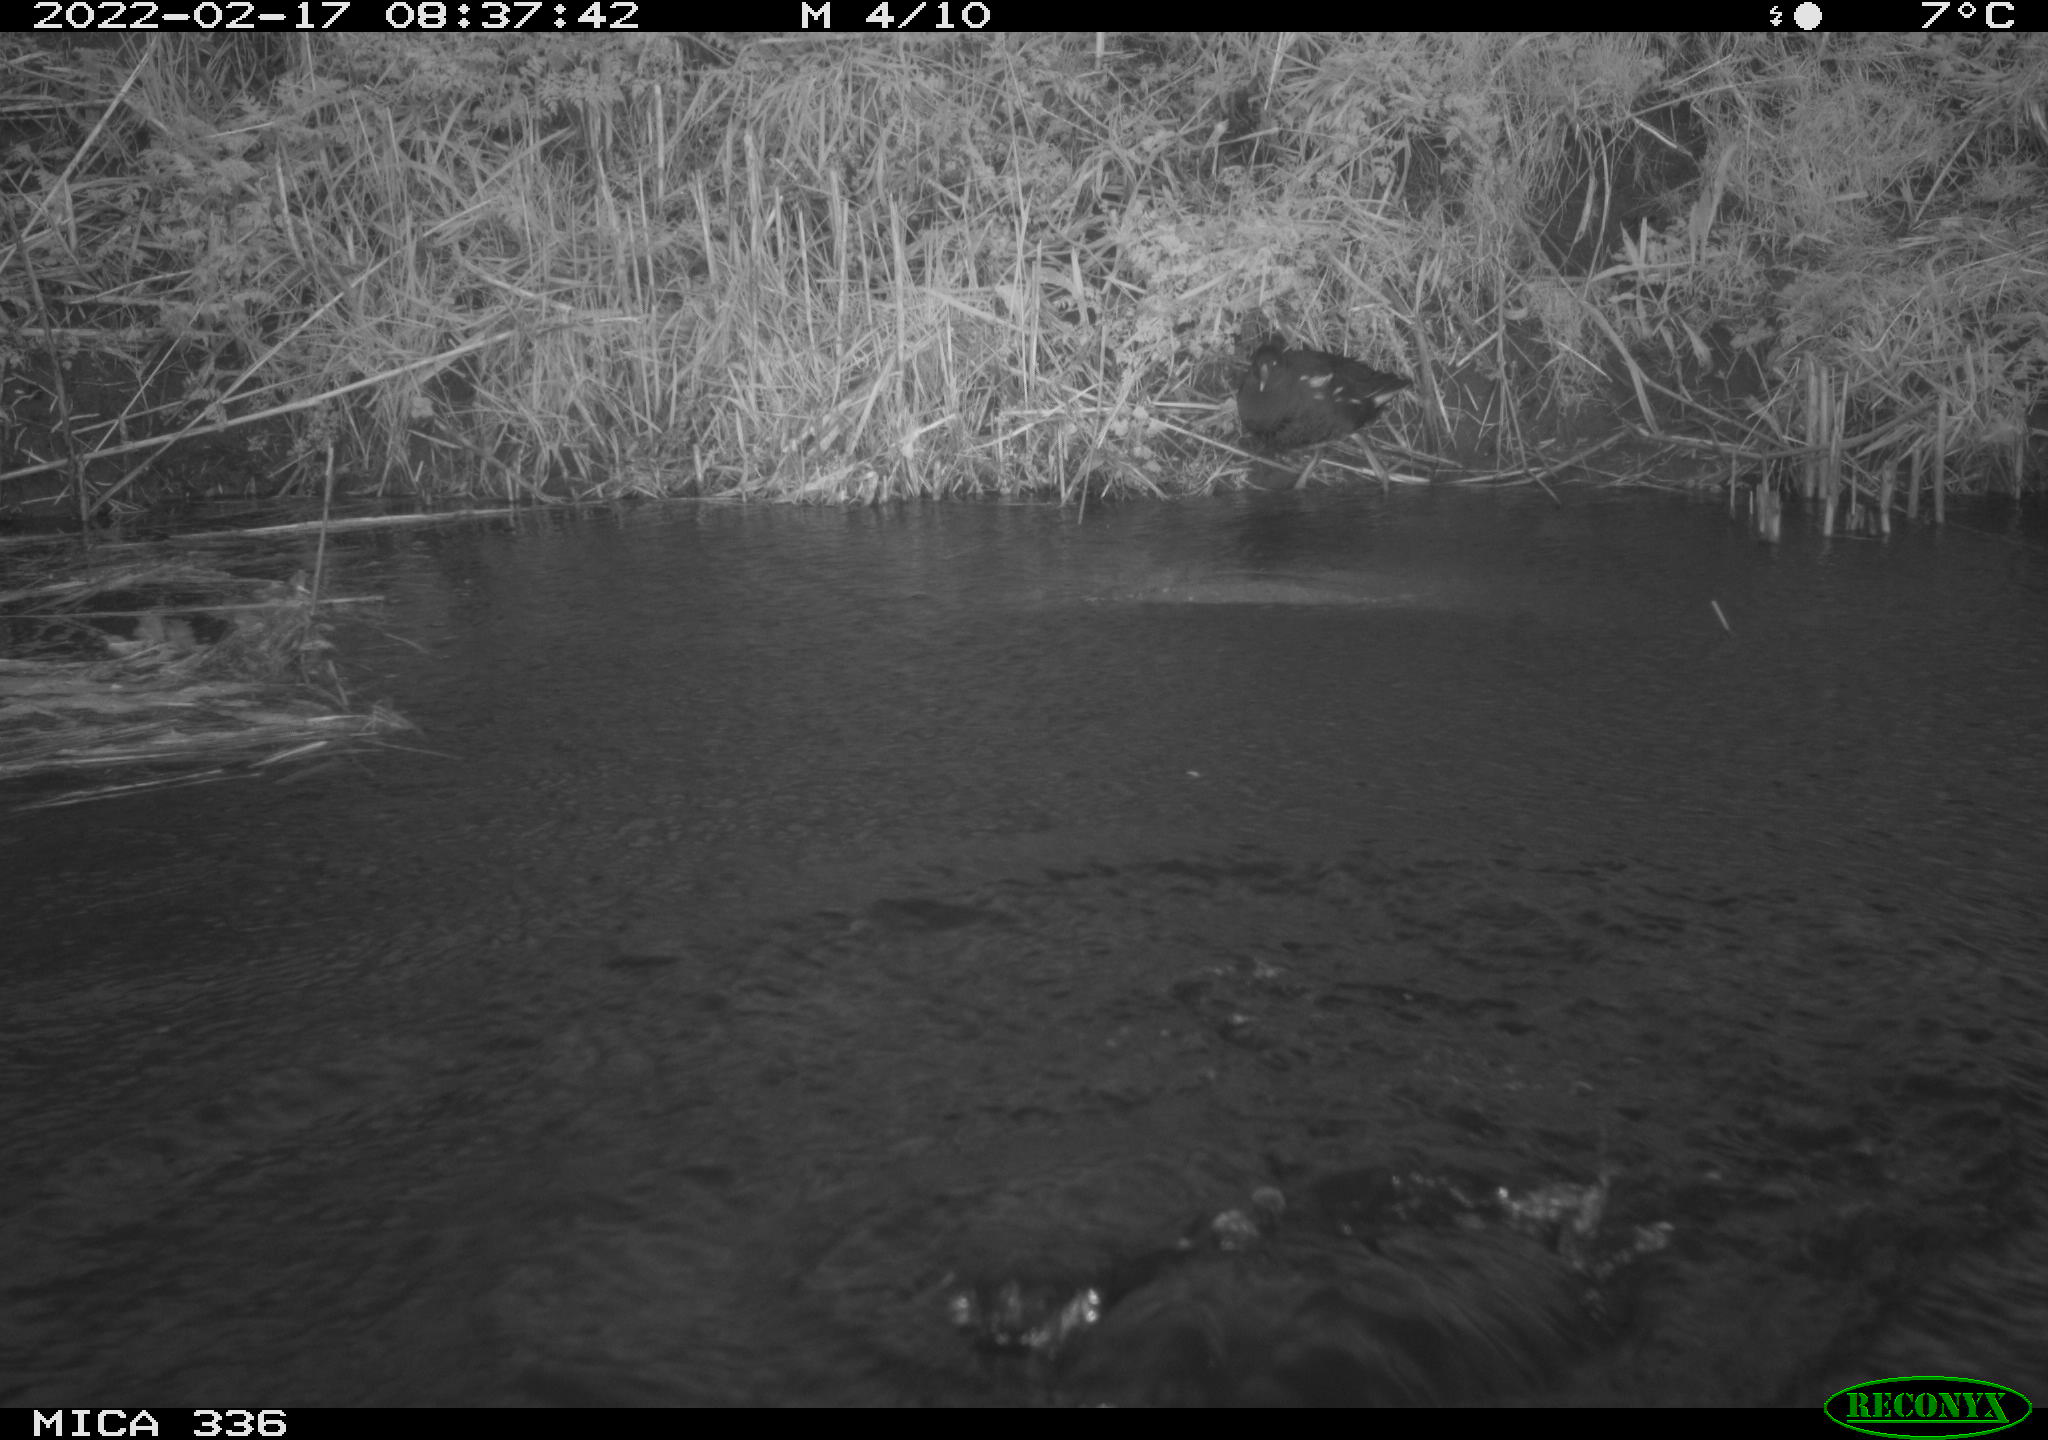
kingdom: Animalia
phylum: Chordata
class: Aves
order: Suliformes
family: Phalacrocoracidae
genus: Phalacrocorax
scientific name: Phalacrocorax carbo
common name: Great cormorant
